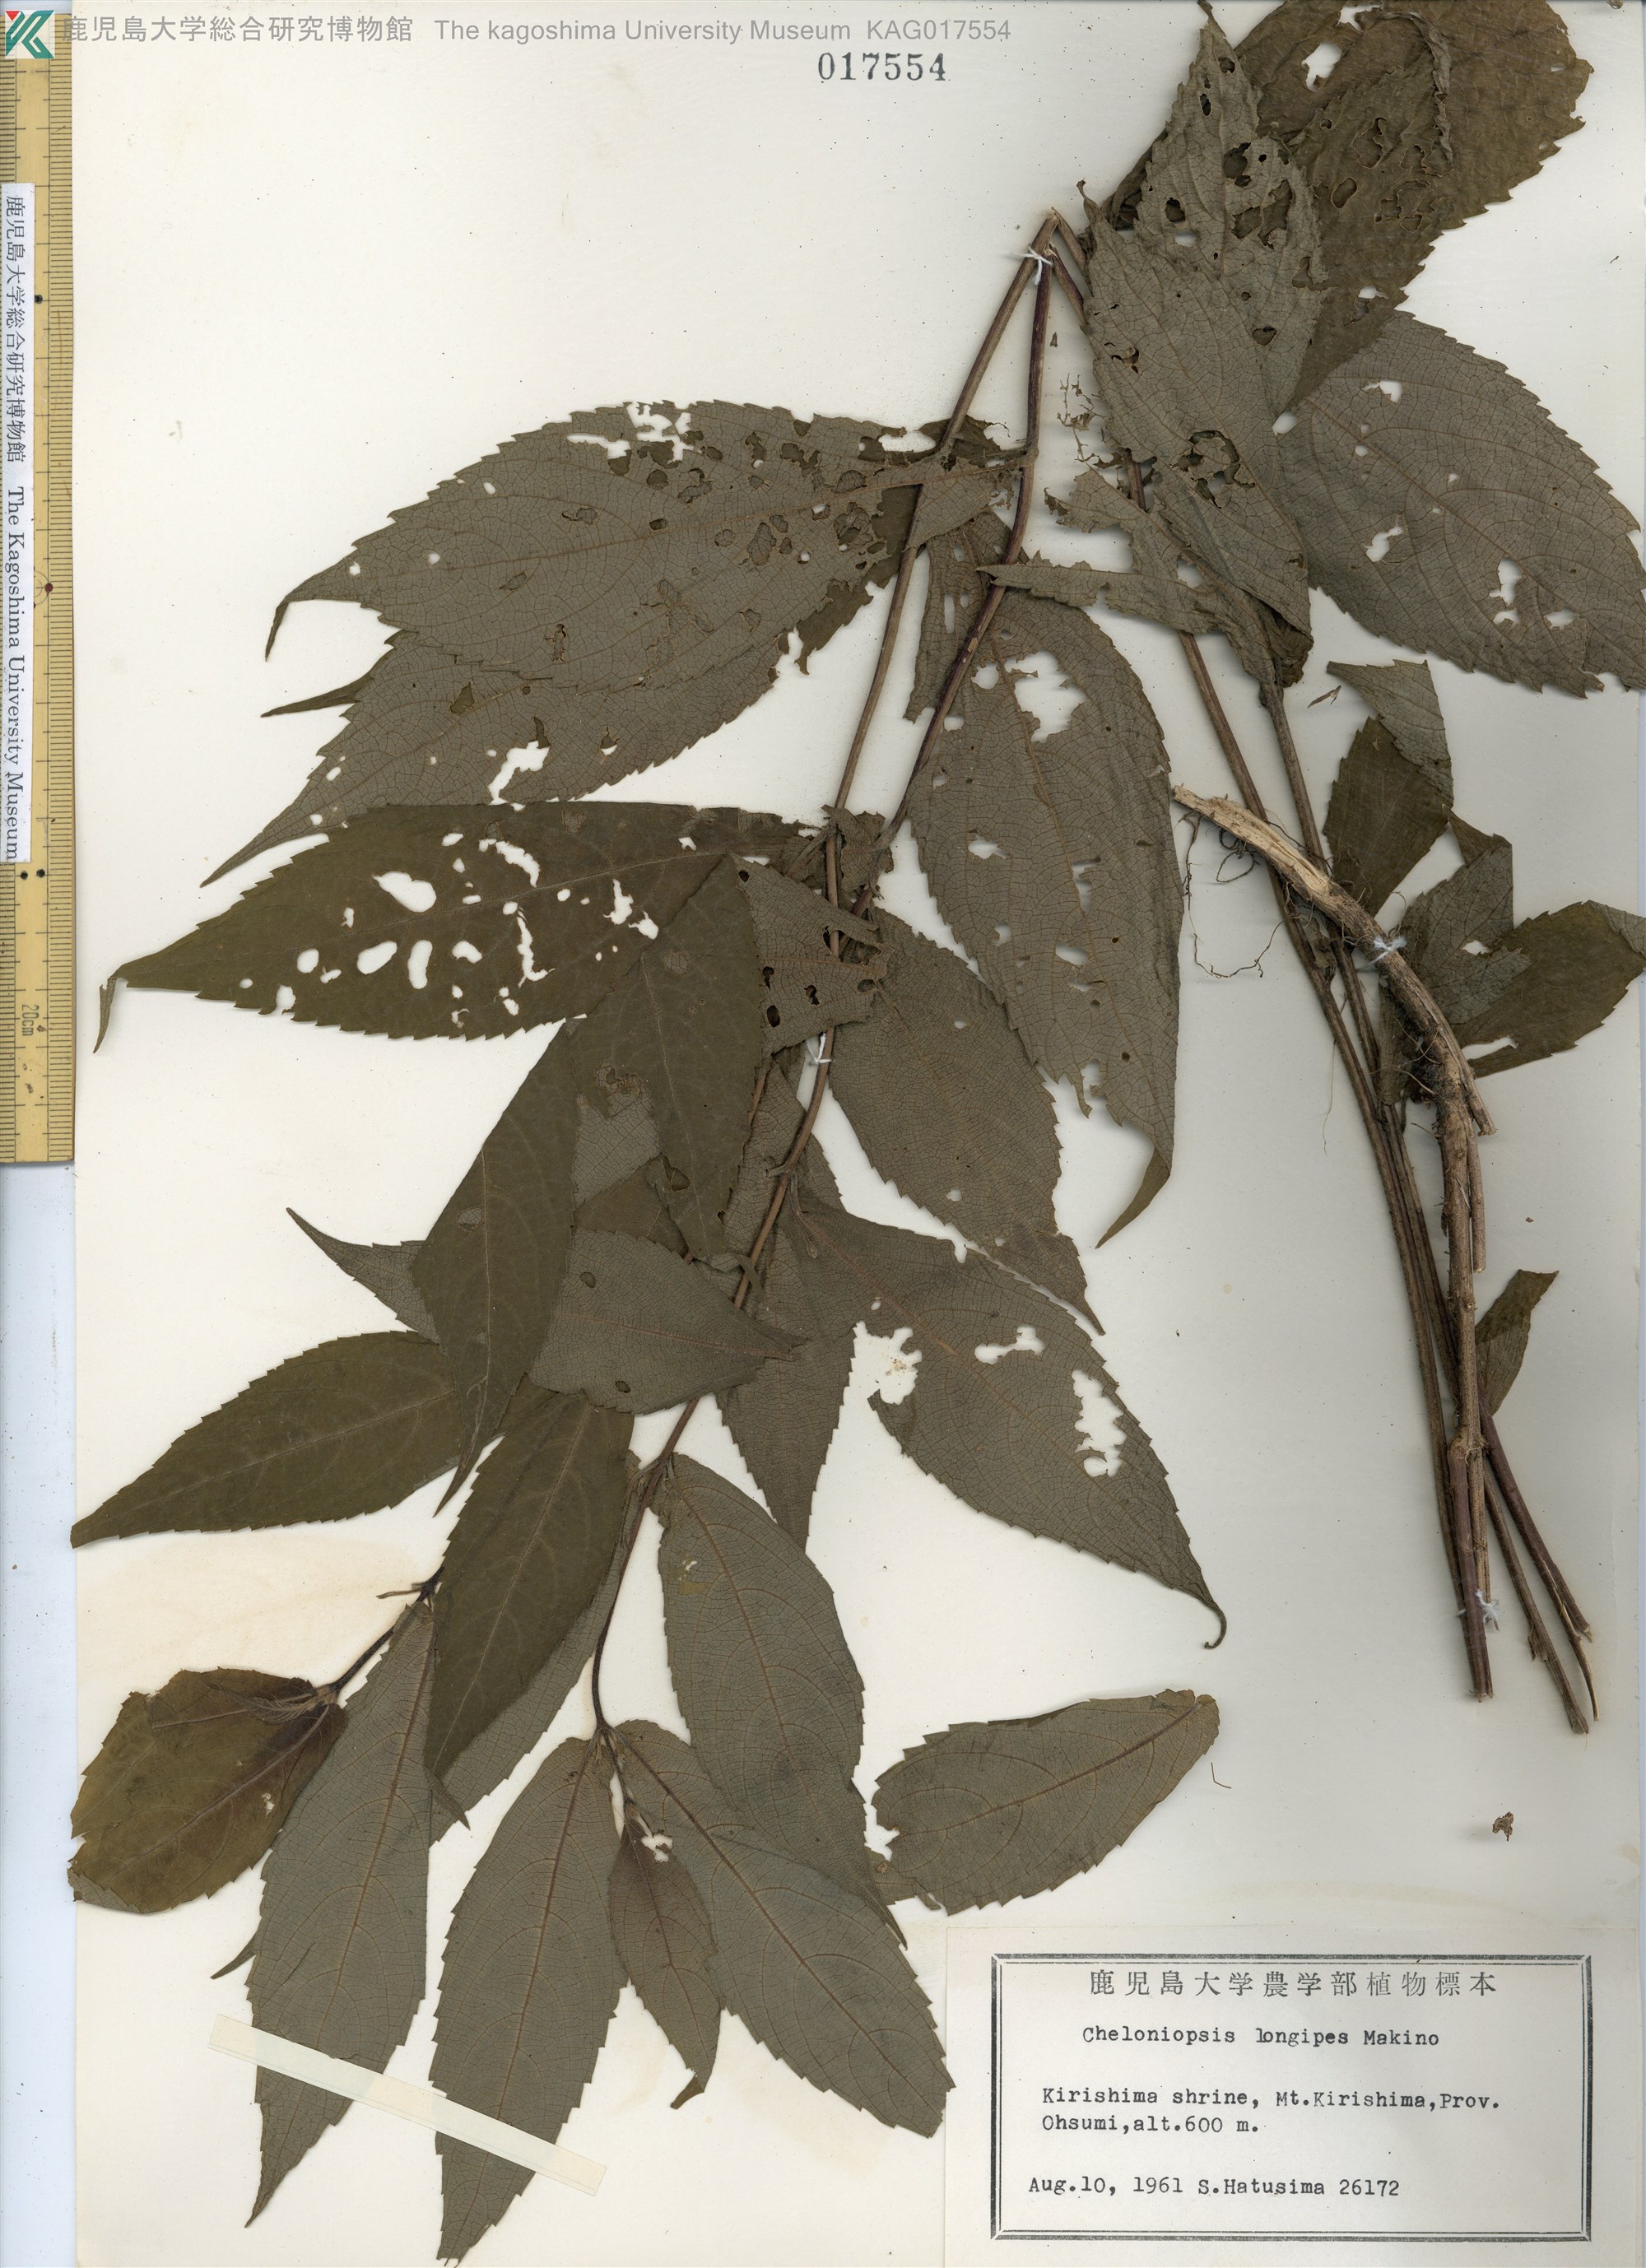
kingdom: Plantae
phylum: Tracheophyta
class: Magnoliopsida
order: Lamiales
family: Lamiaceae
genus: Chelonopsis
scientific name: Chelonopsis longipes
